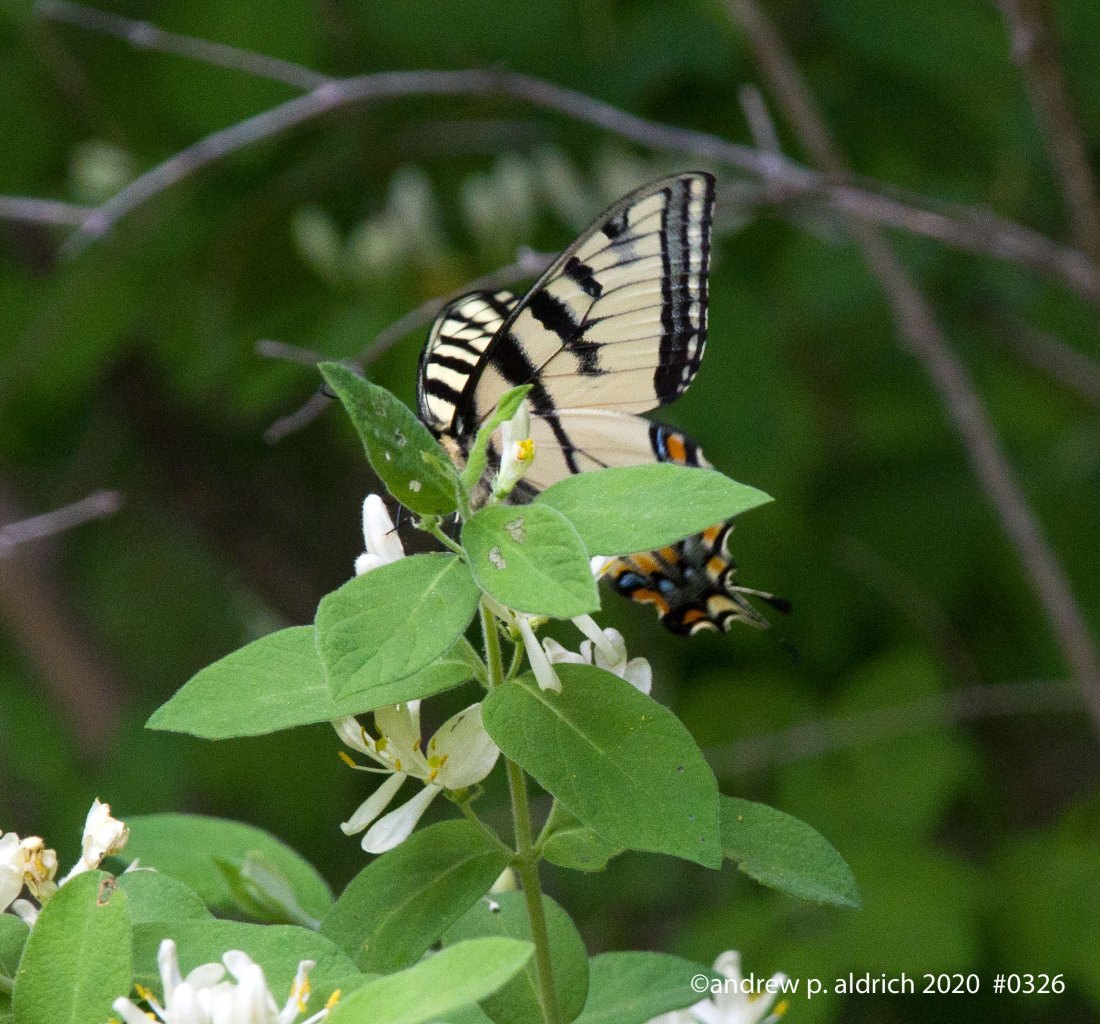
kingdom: Animalia
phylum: Arthropoda
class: Insecta
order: Lepidoptera
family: Papilionidae
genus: Pterourus
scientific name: Pterourus canadensis
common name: Canadian Tiger Swallowtail
